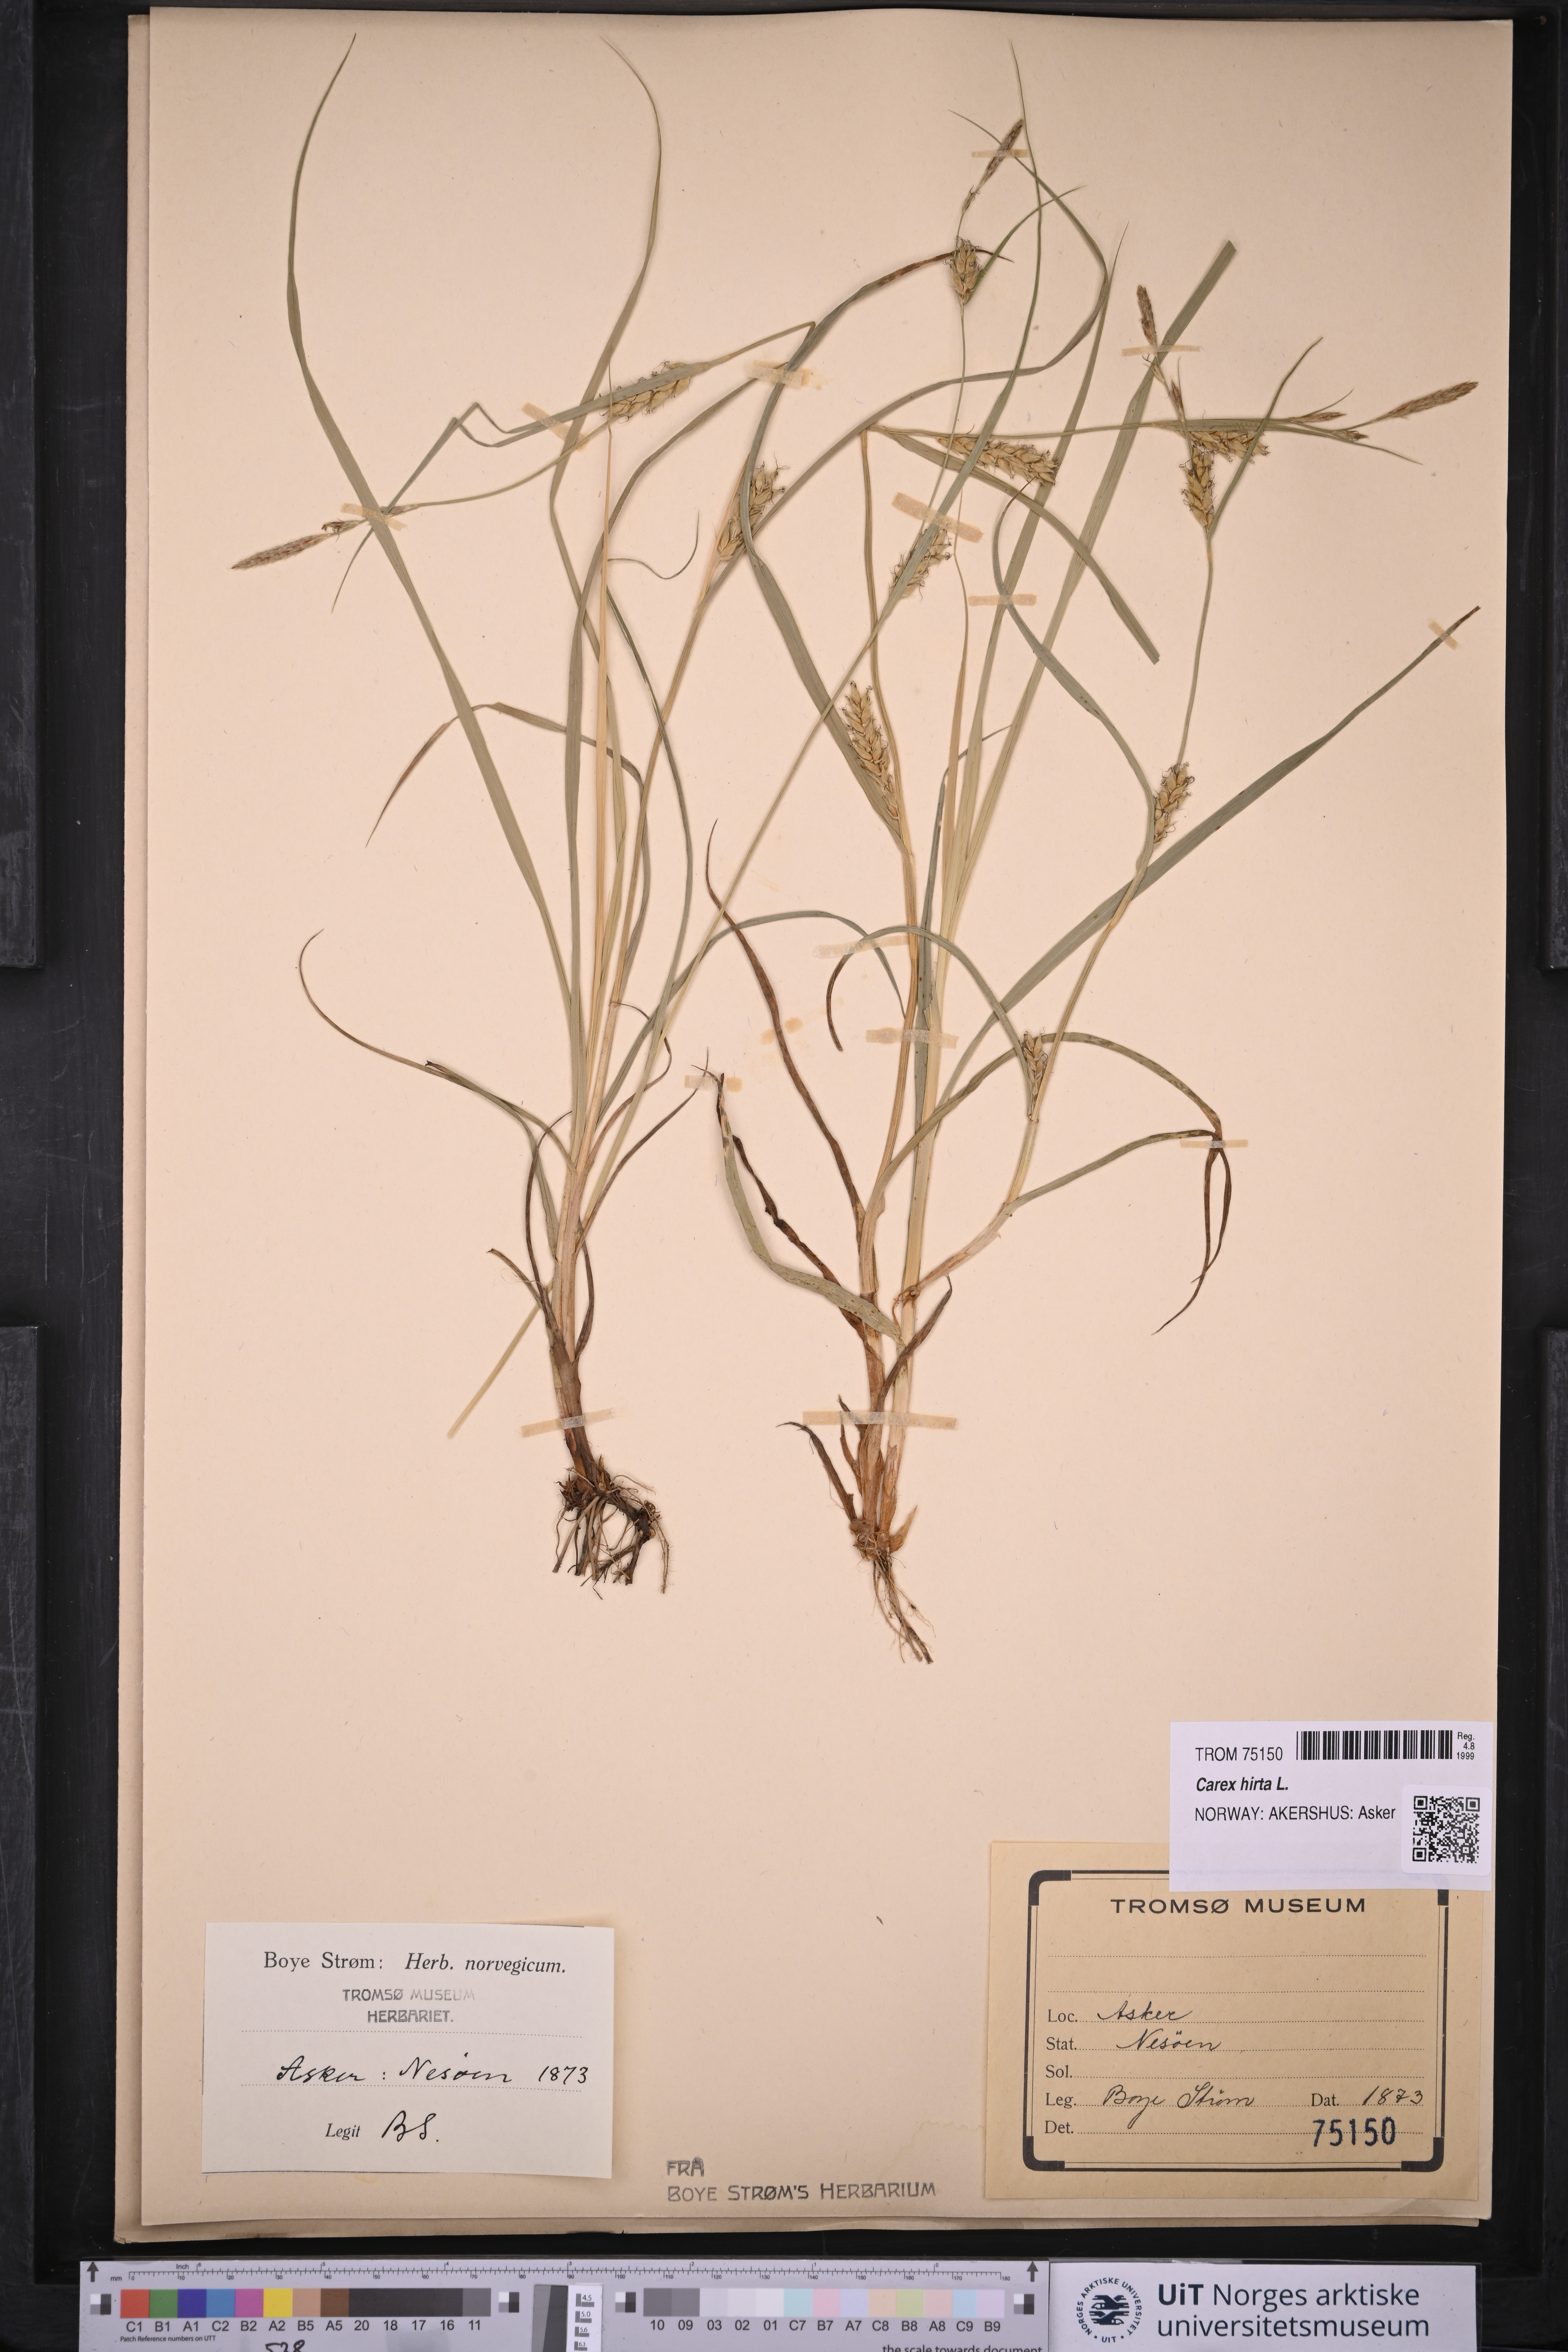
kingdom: Plantae
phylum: Tracheophyta
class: Liliopsida
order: Poales
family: Cyperaceae
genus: Carex
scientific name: Carex hirta
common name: Hairy sedge
